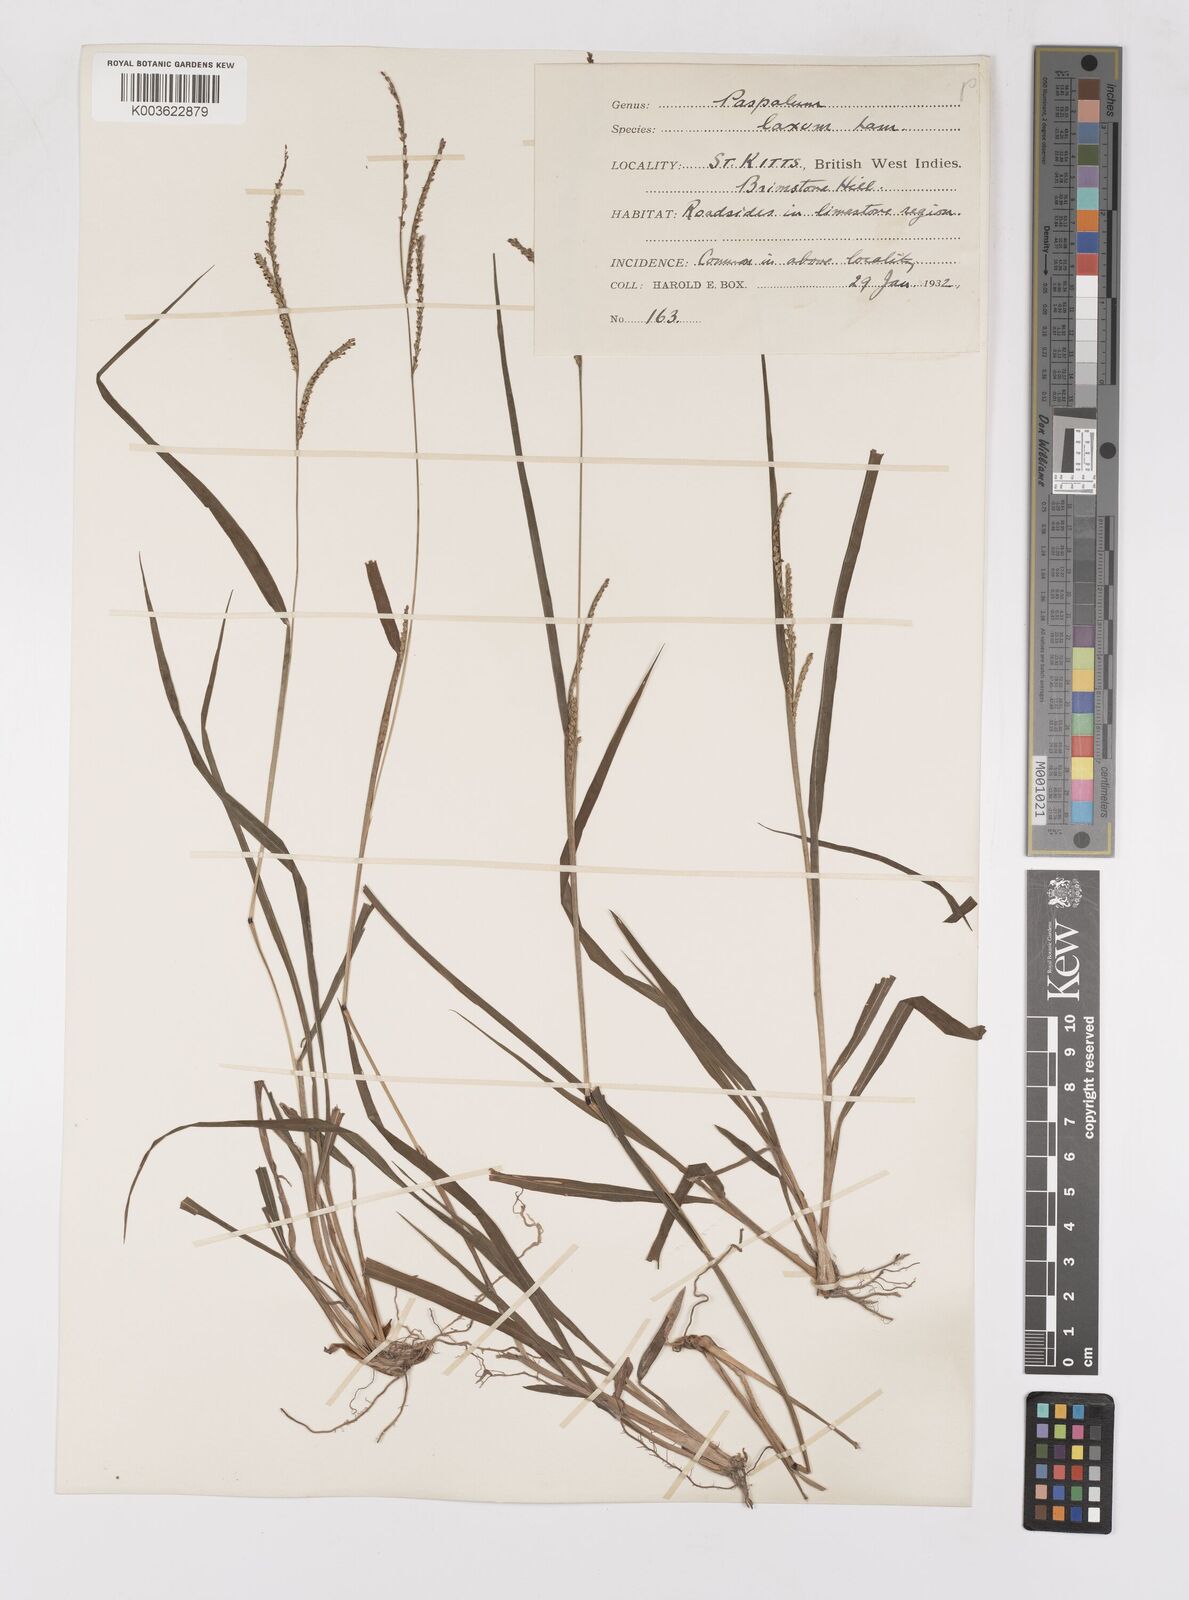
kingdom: Plantae
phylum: Tracheophyta
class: Liliopsida
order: Poales
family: Poaceae
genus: Paspalum
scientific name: Paspalum laxum
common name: Coconut paspalum
